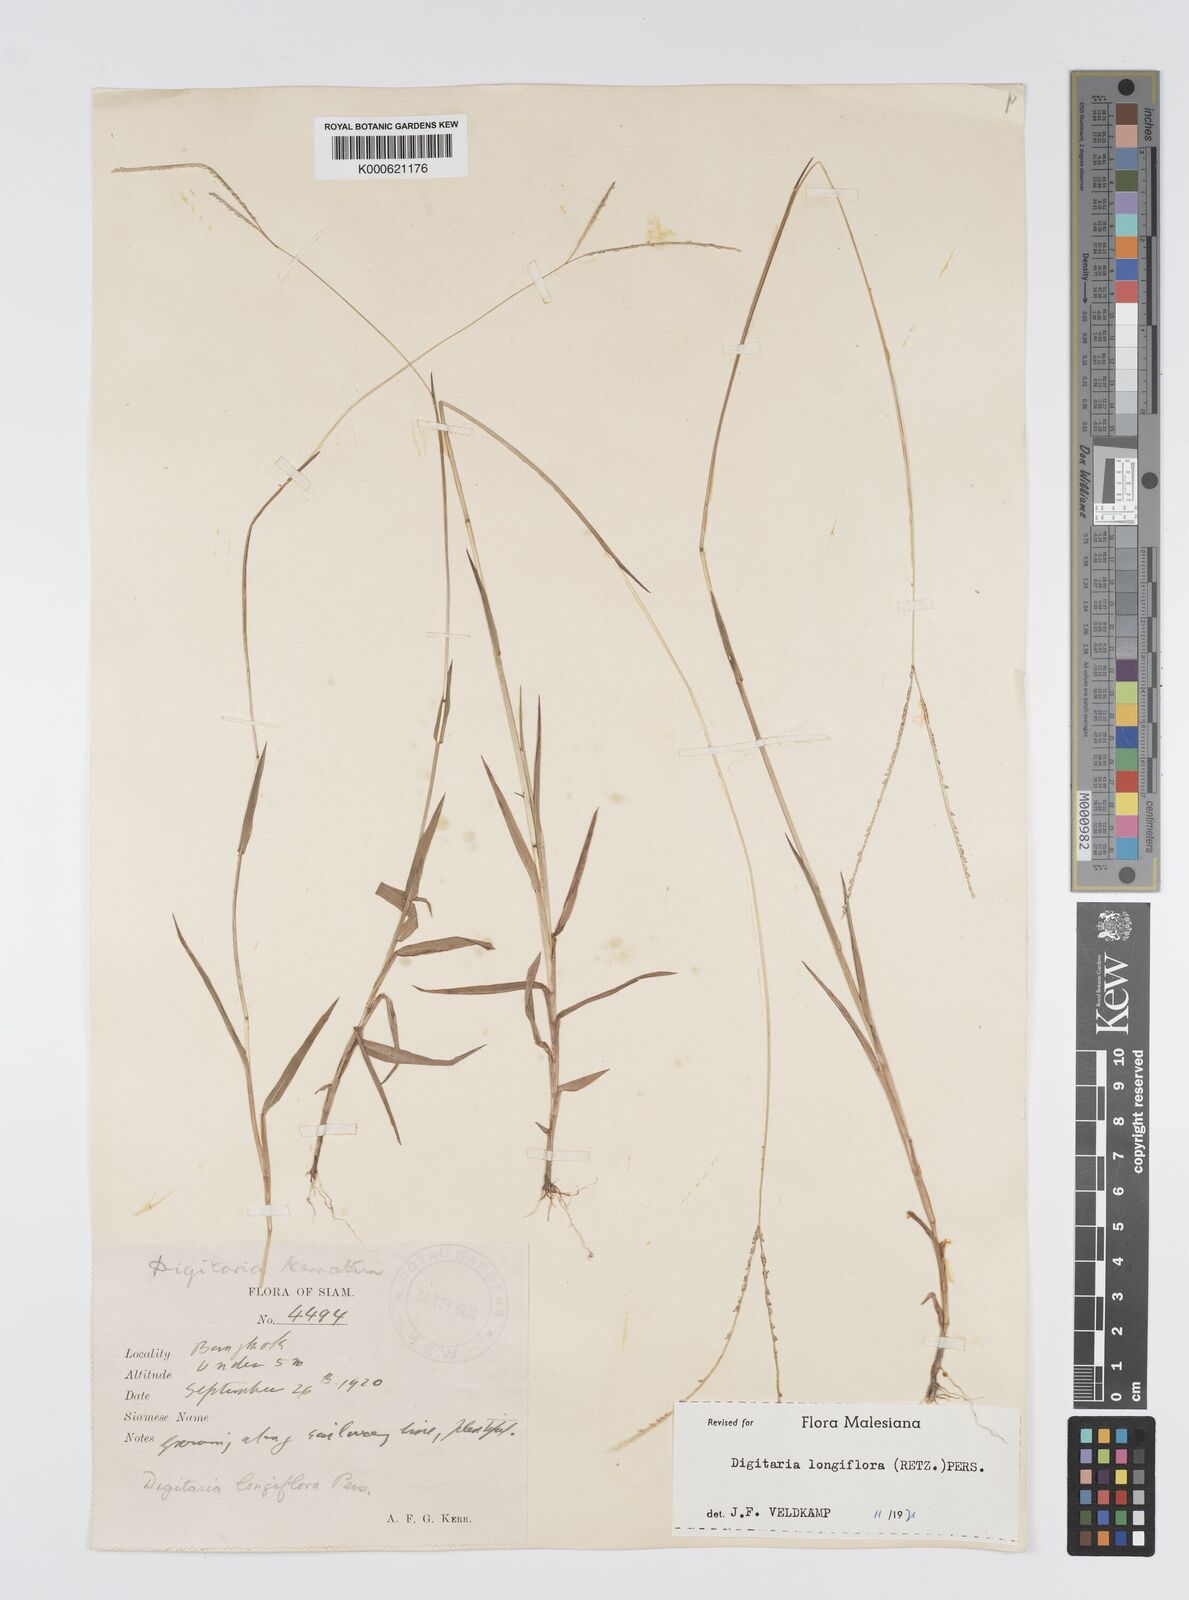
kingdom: Plantae
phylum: Tracheophyta
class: Liliopsida
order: Poales
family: Poaceae
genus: Digitaria
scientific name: Digitaria longiflora
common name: Wire crabgrass
